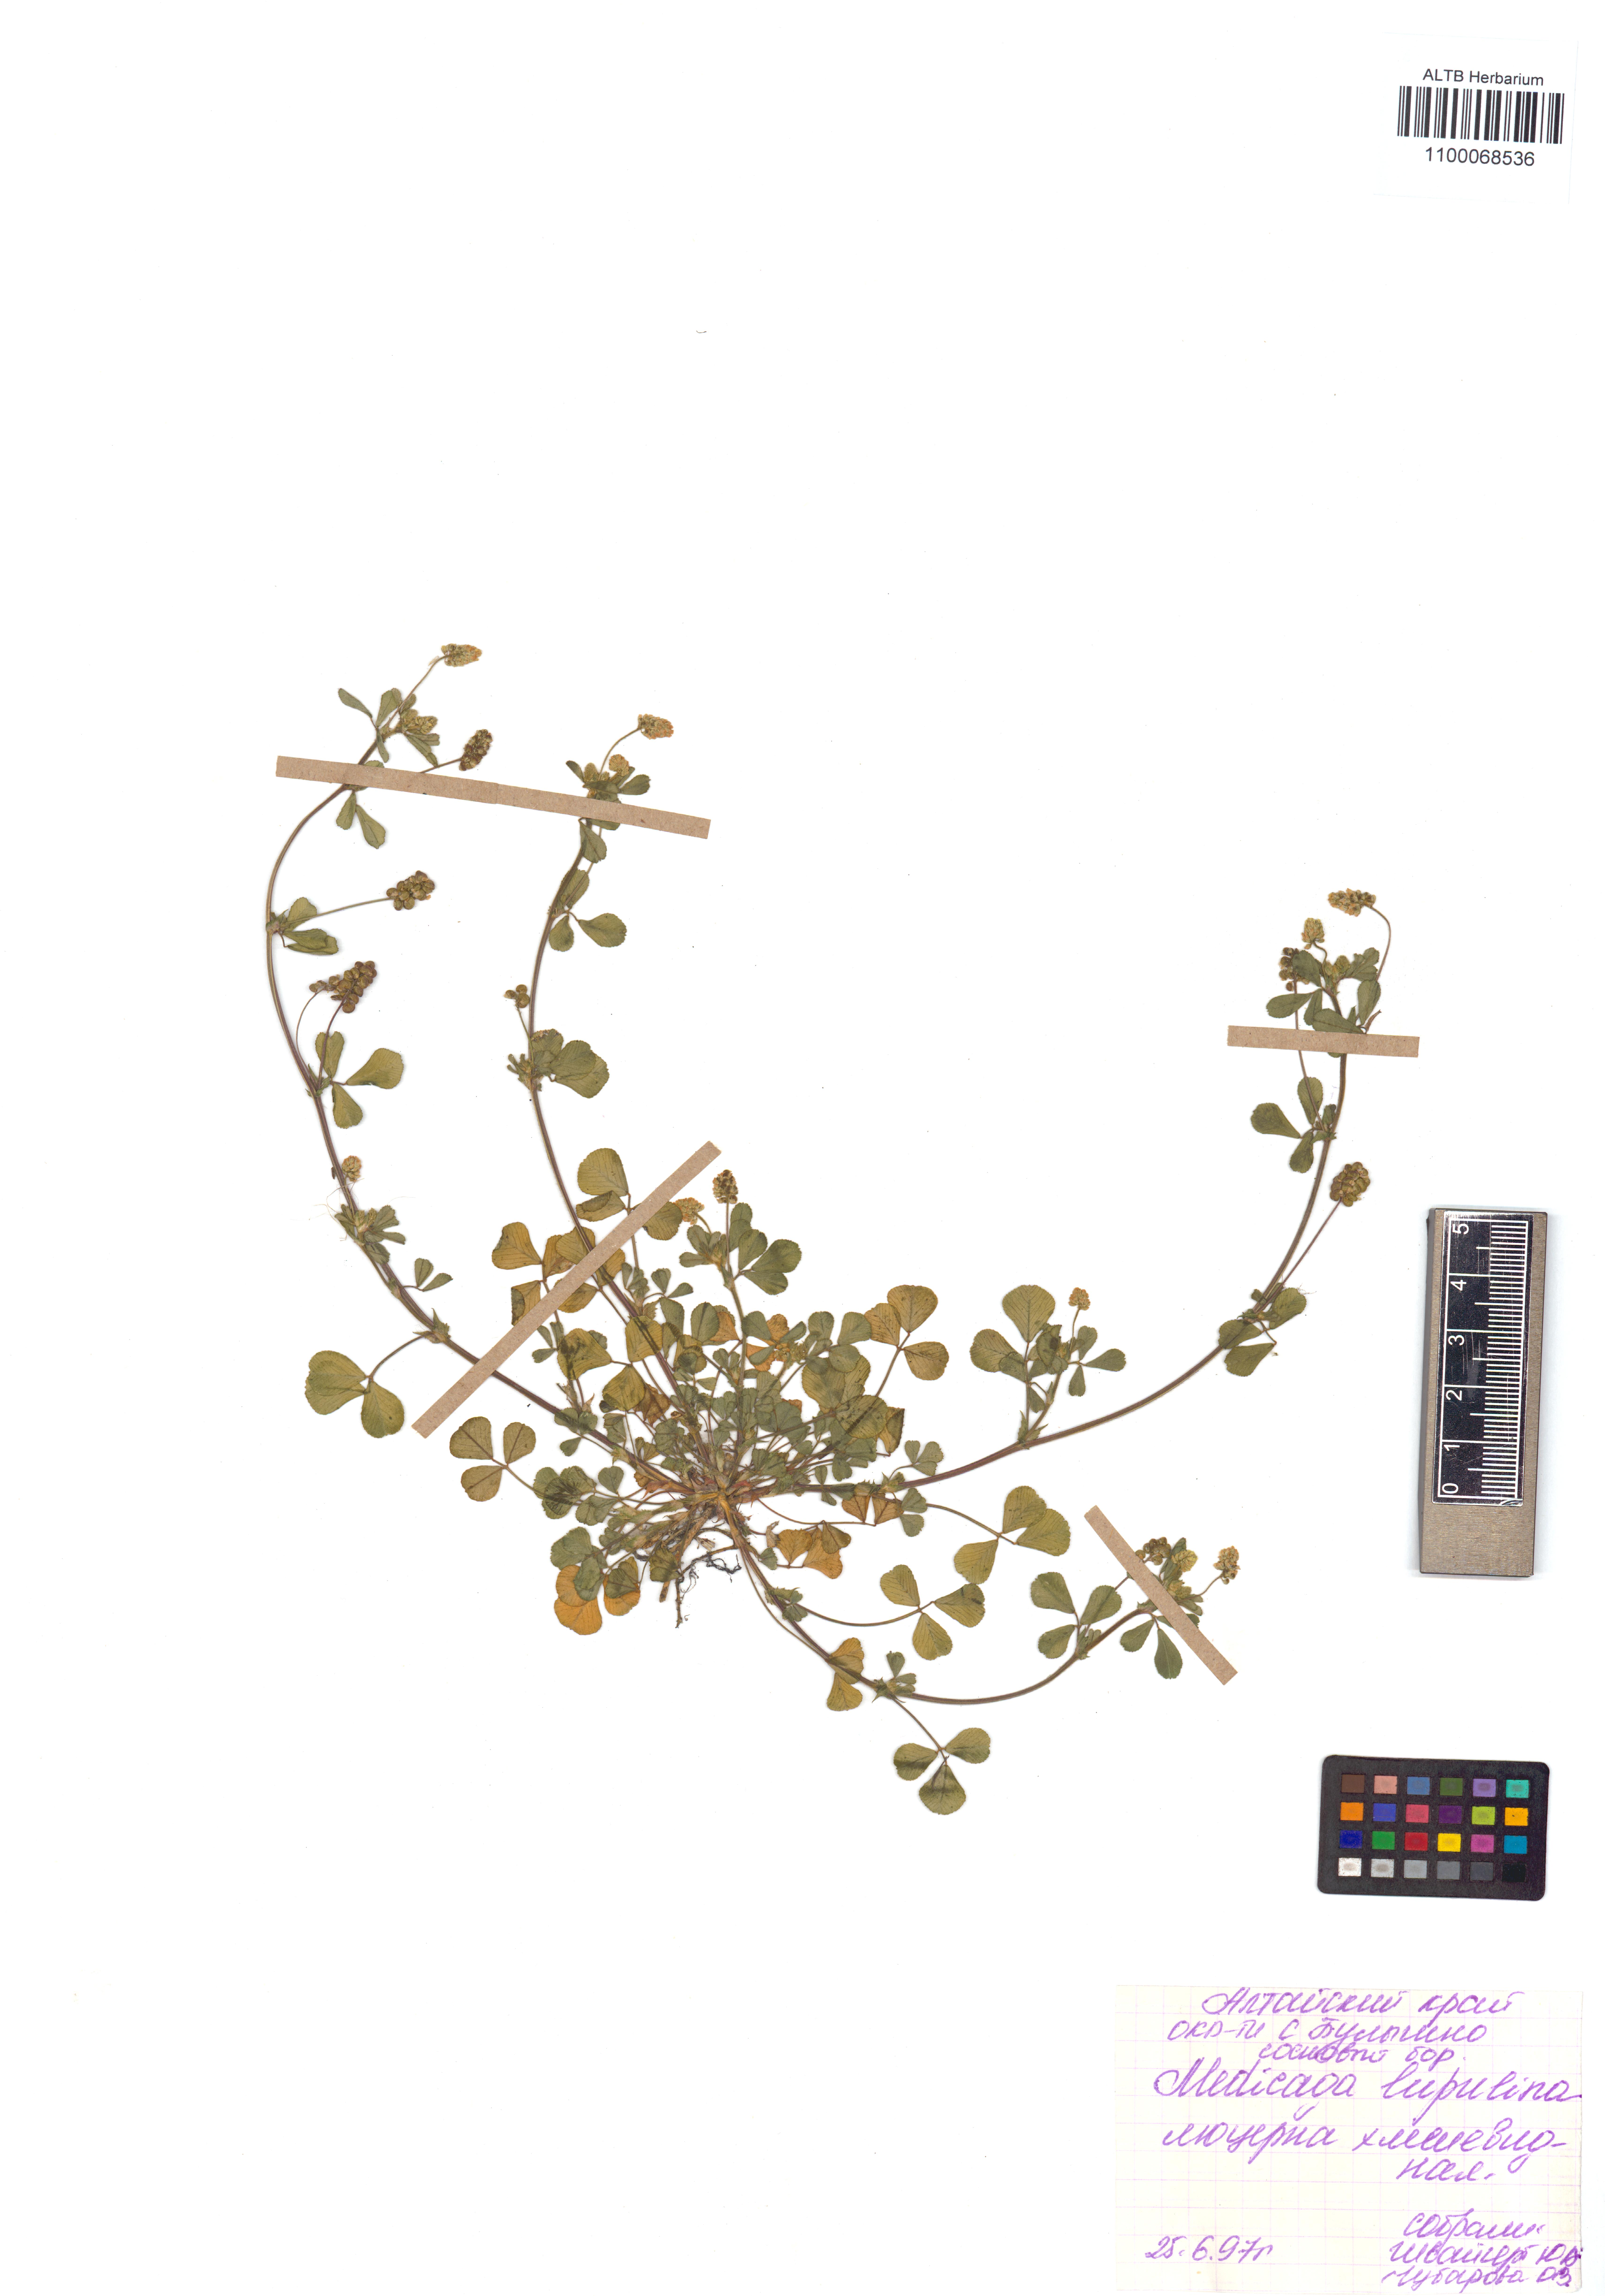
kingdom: Plantae
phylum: Tracheophyta
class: Magnoliopsida
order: Fabales
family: Fabaceae
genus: Medicago
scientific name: Medicago lupulina
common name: Black medick
